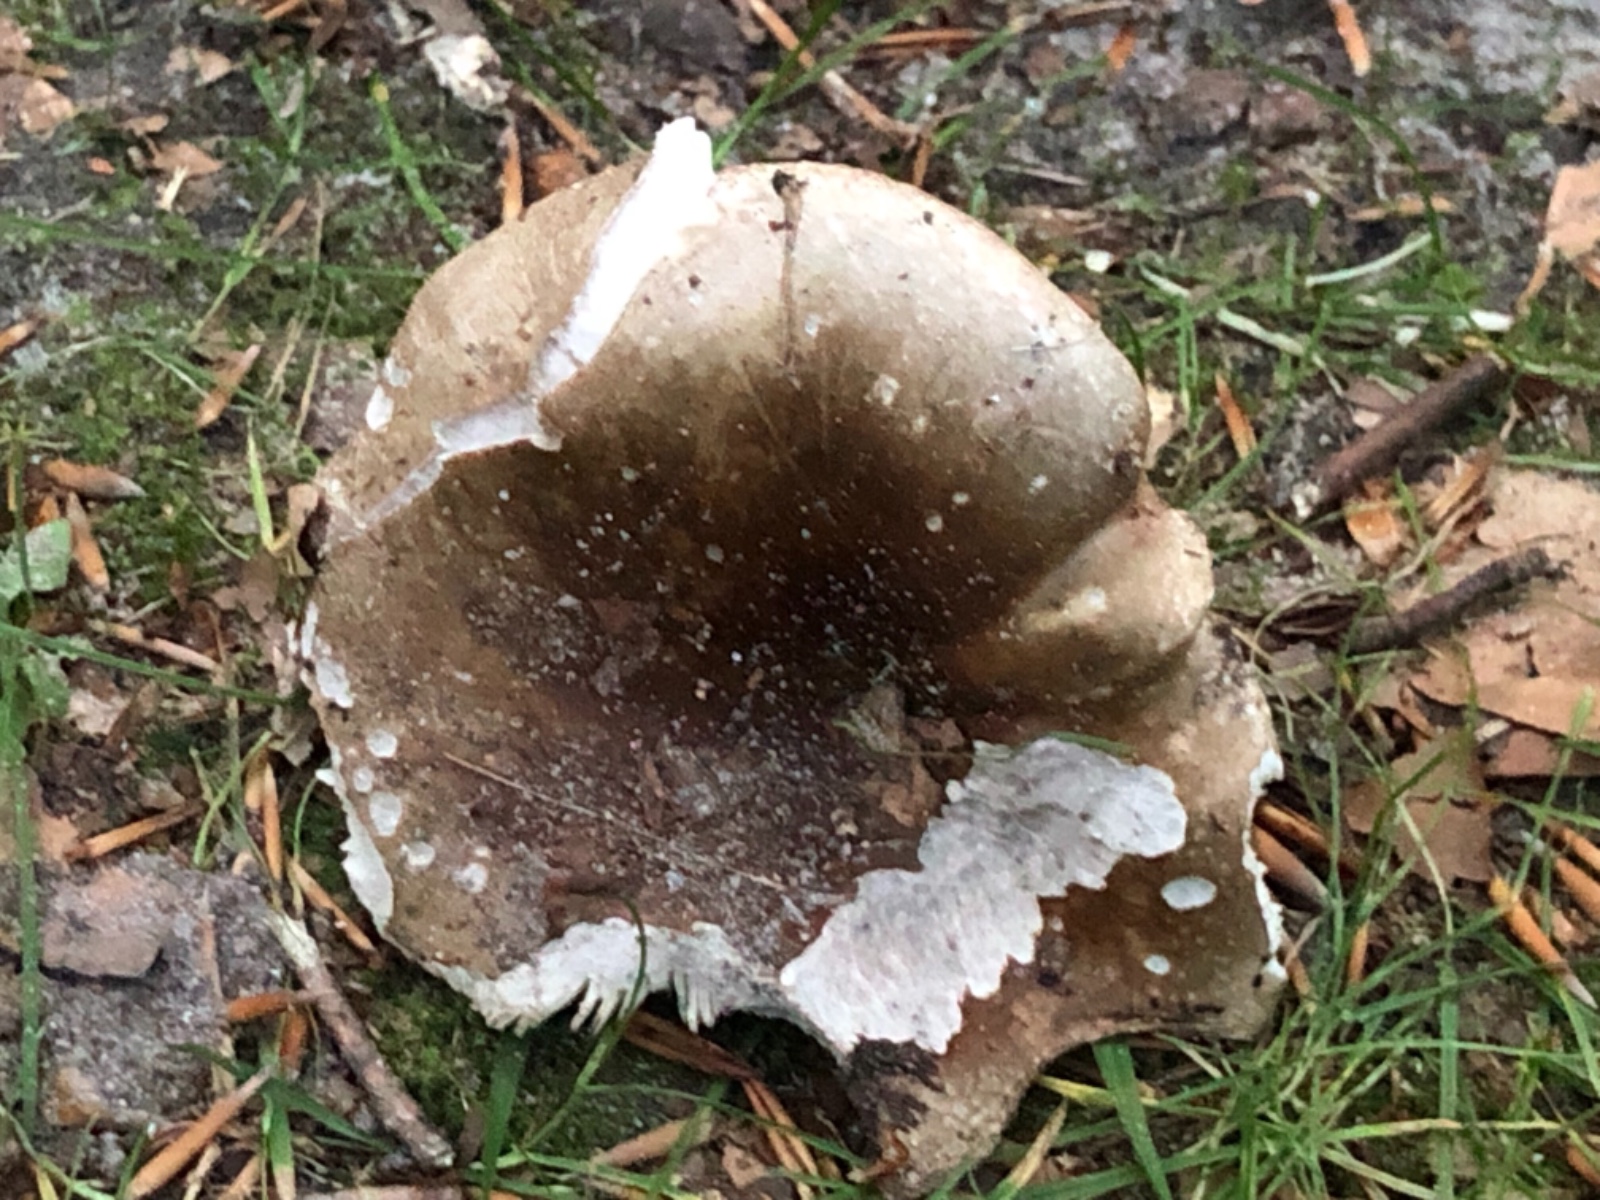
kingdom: Fungi
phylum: Basidiomycota
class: Agaricomycetes
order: Russulales
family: Russulaceae
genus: Russula
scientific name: Russula densifolia
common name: tætbladet skørhat
